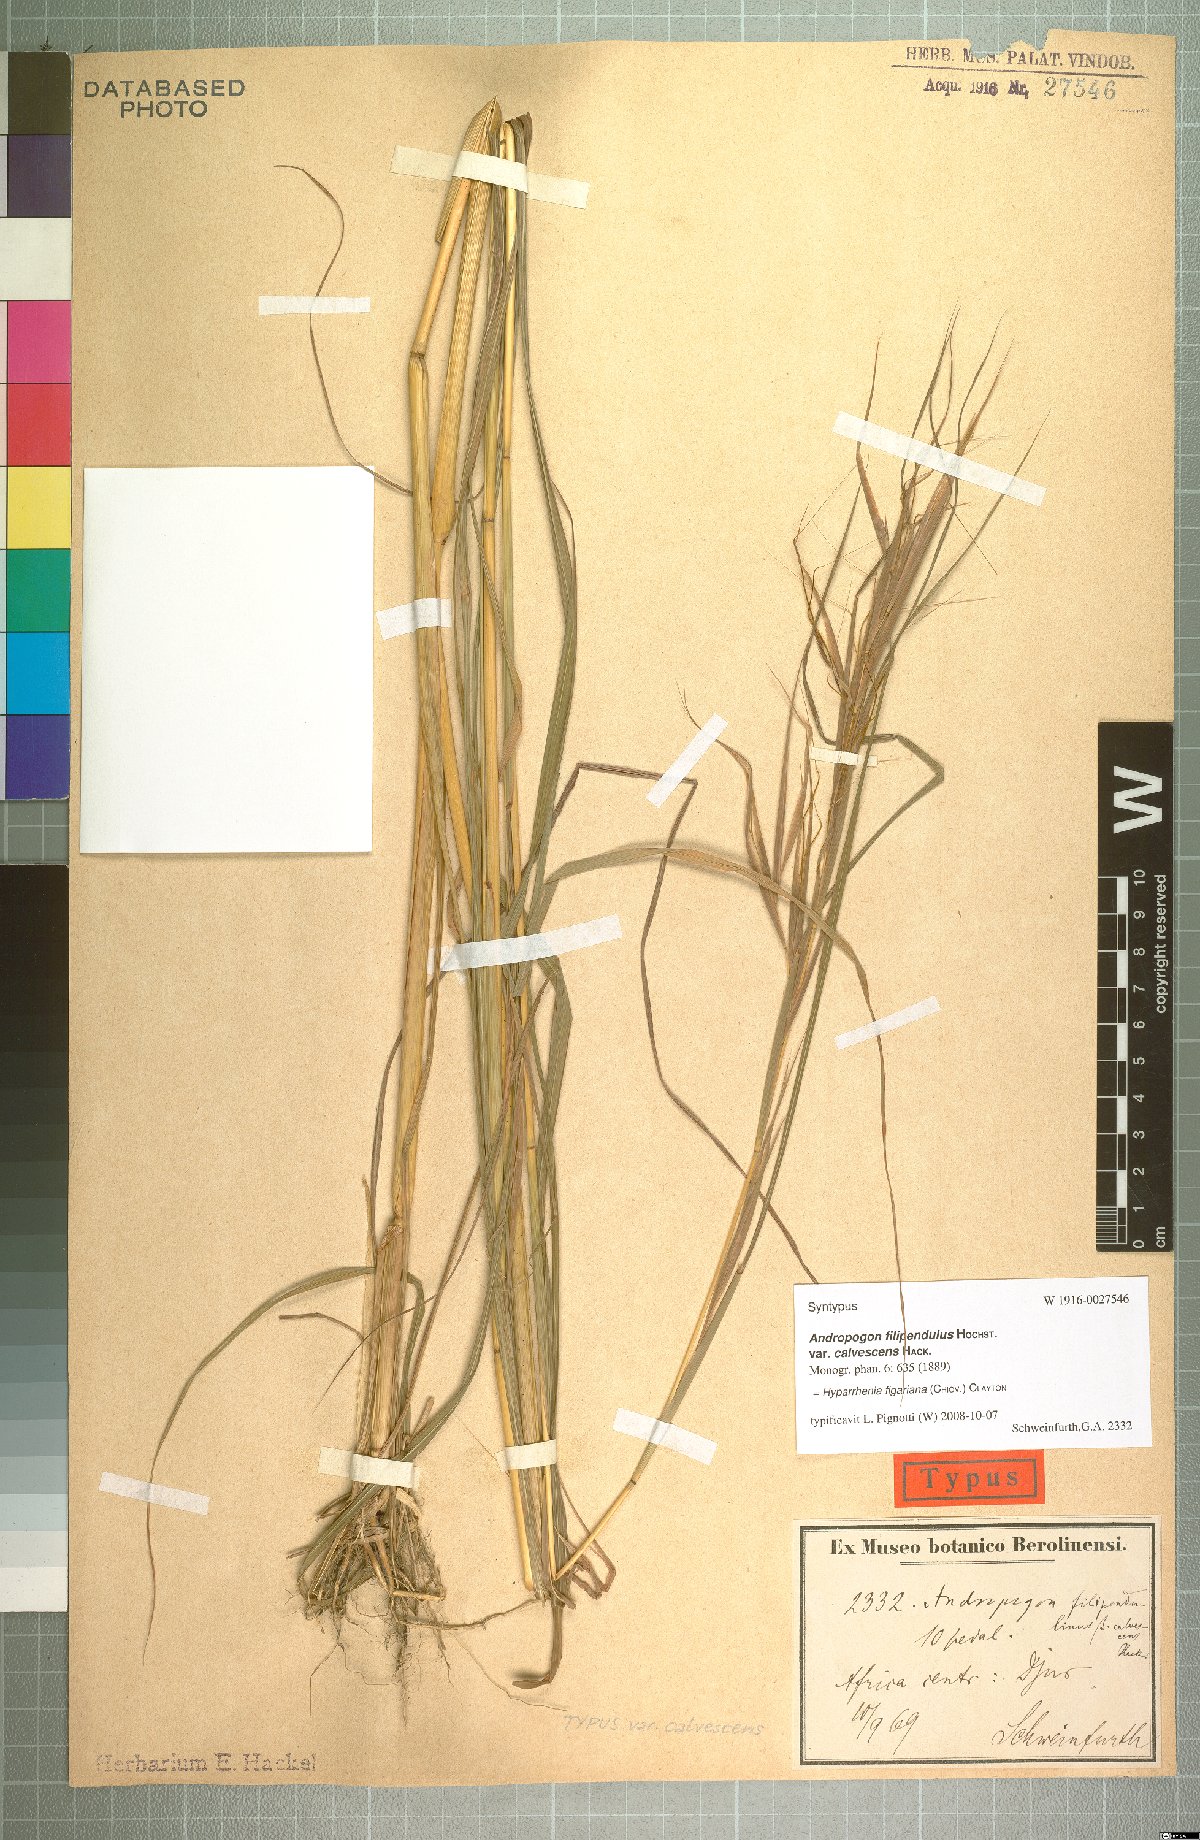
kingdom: Plantae
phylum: Tracheophyta
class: Liliopsida
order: Poales
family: Poaceae
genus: Hyparrhenia
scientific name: Hyparrhenia figariana
